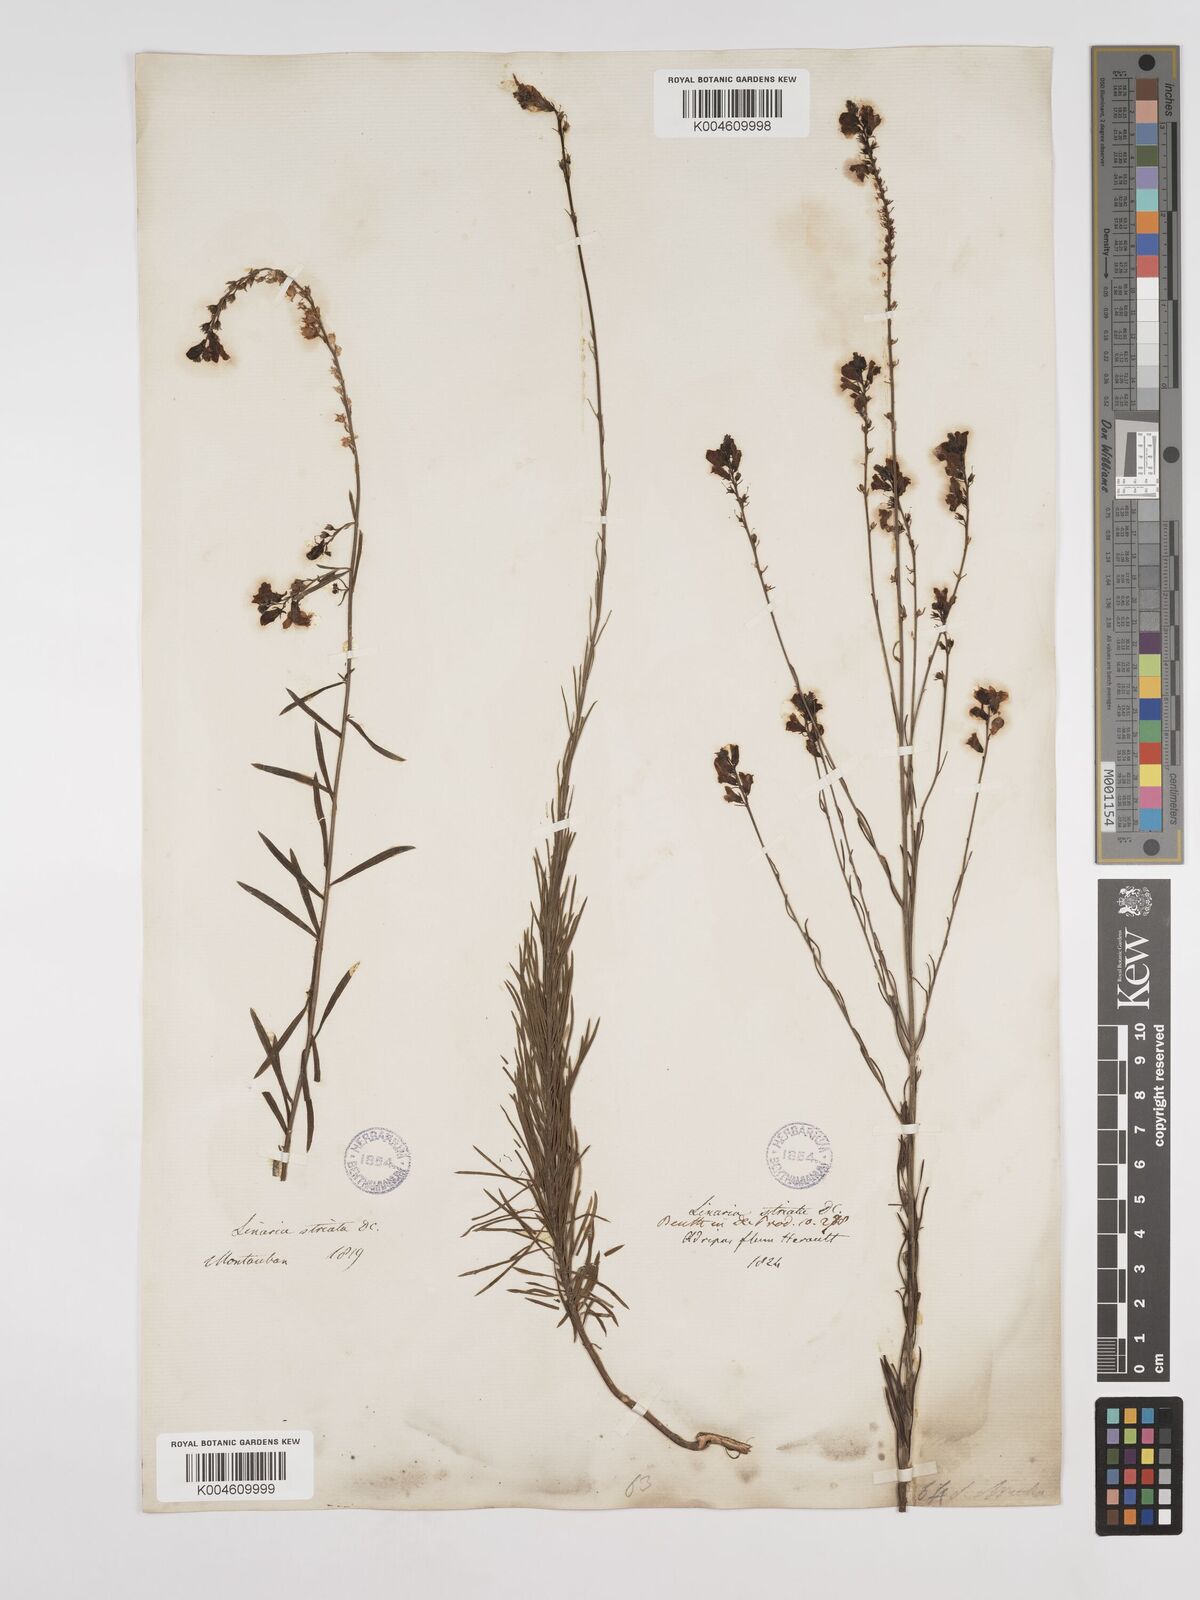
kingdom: Plantae
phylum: Tracheophyta
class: Magnoliopsida
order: Lamiales
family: Plantaginaceae
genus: Linaria
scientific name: Linaria repens
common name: Pale toadflax
